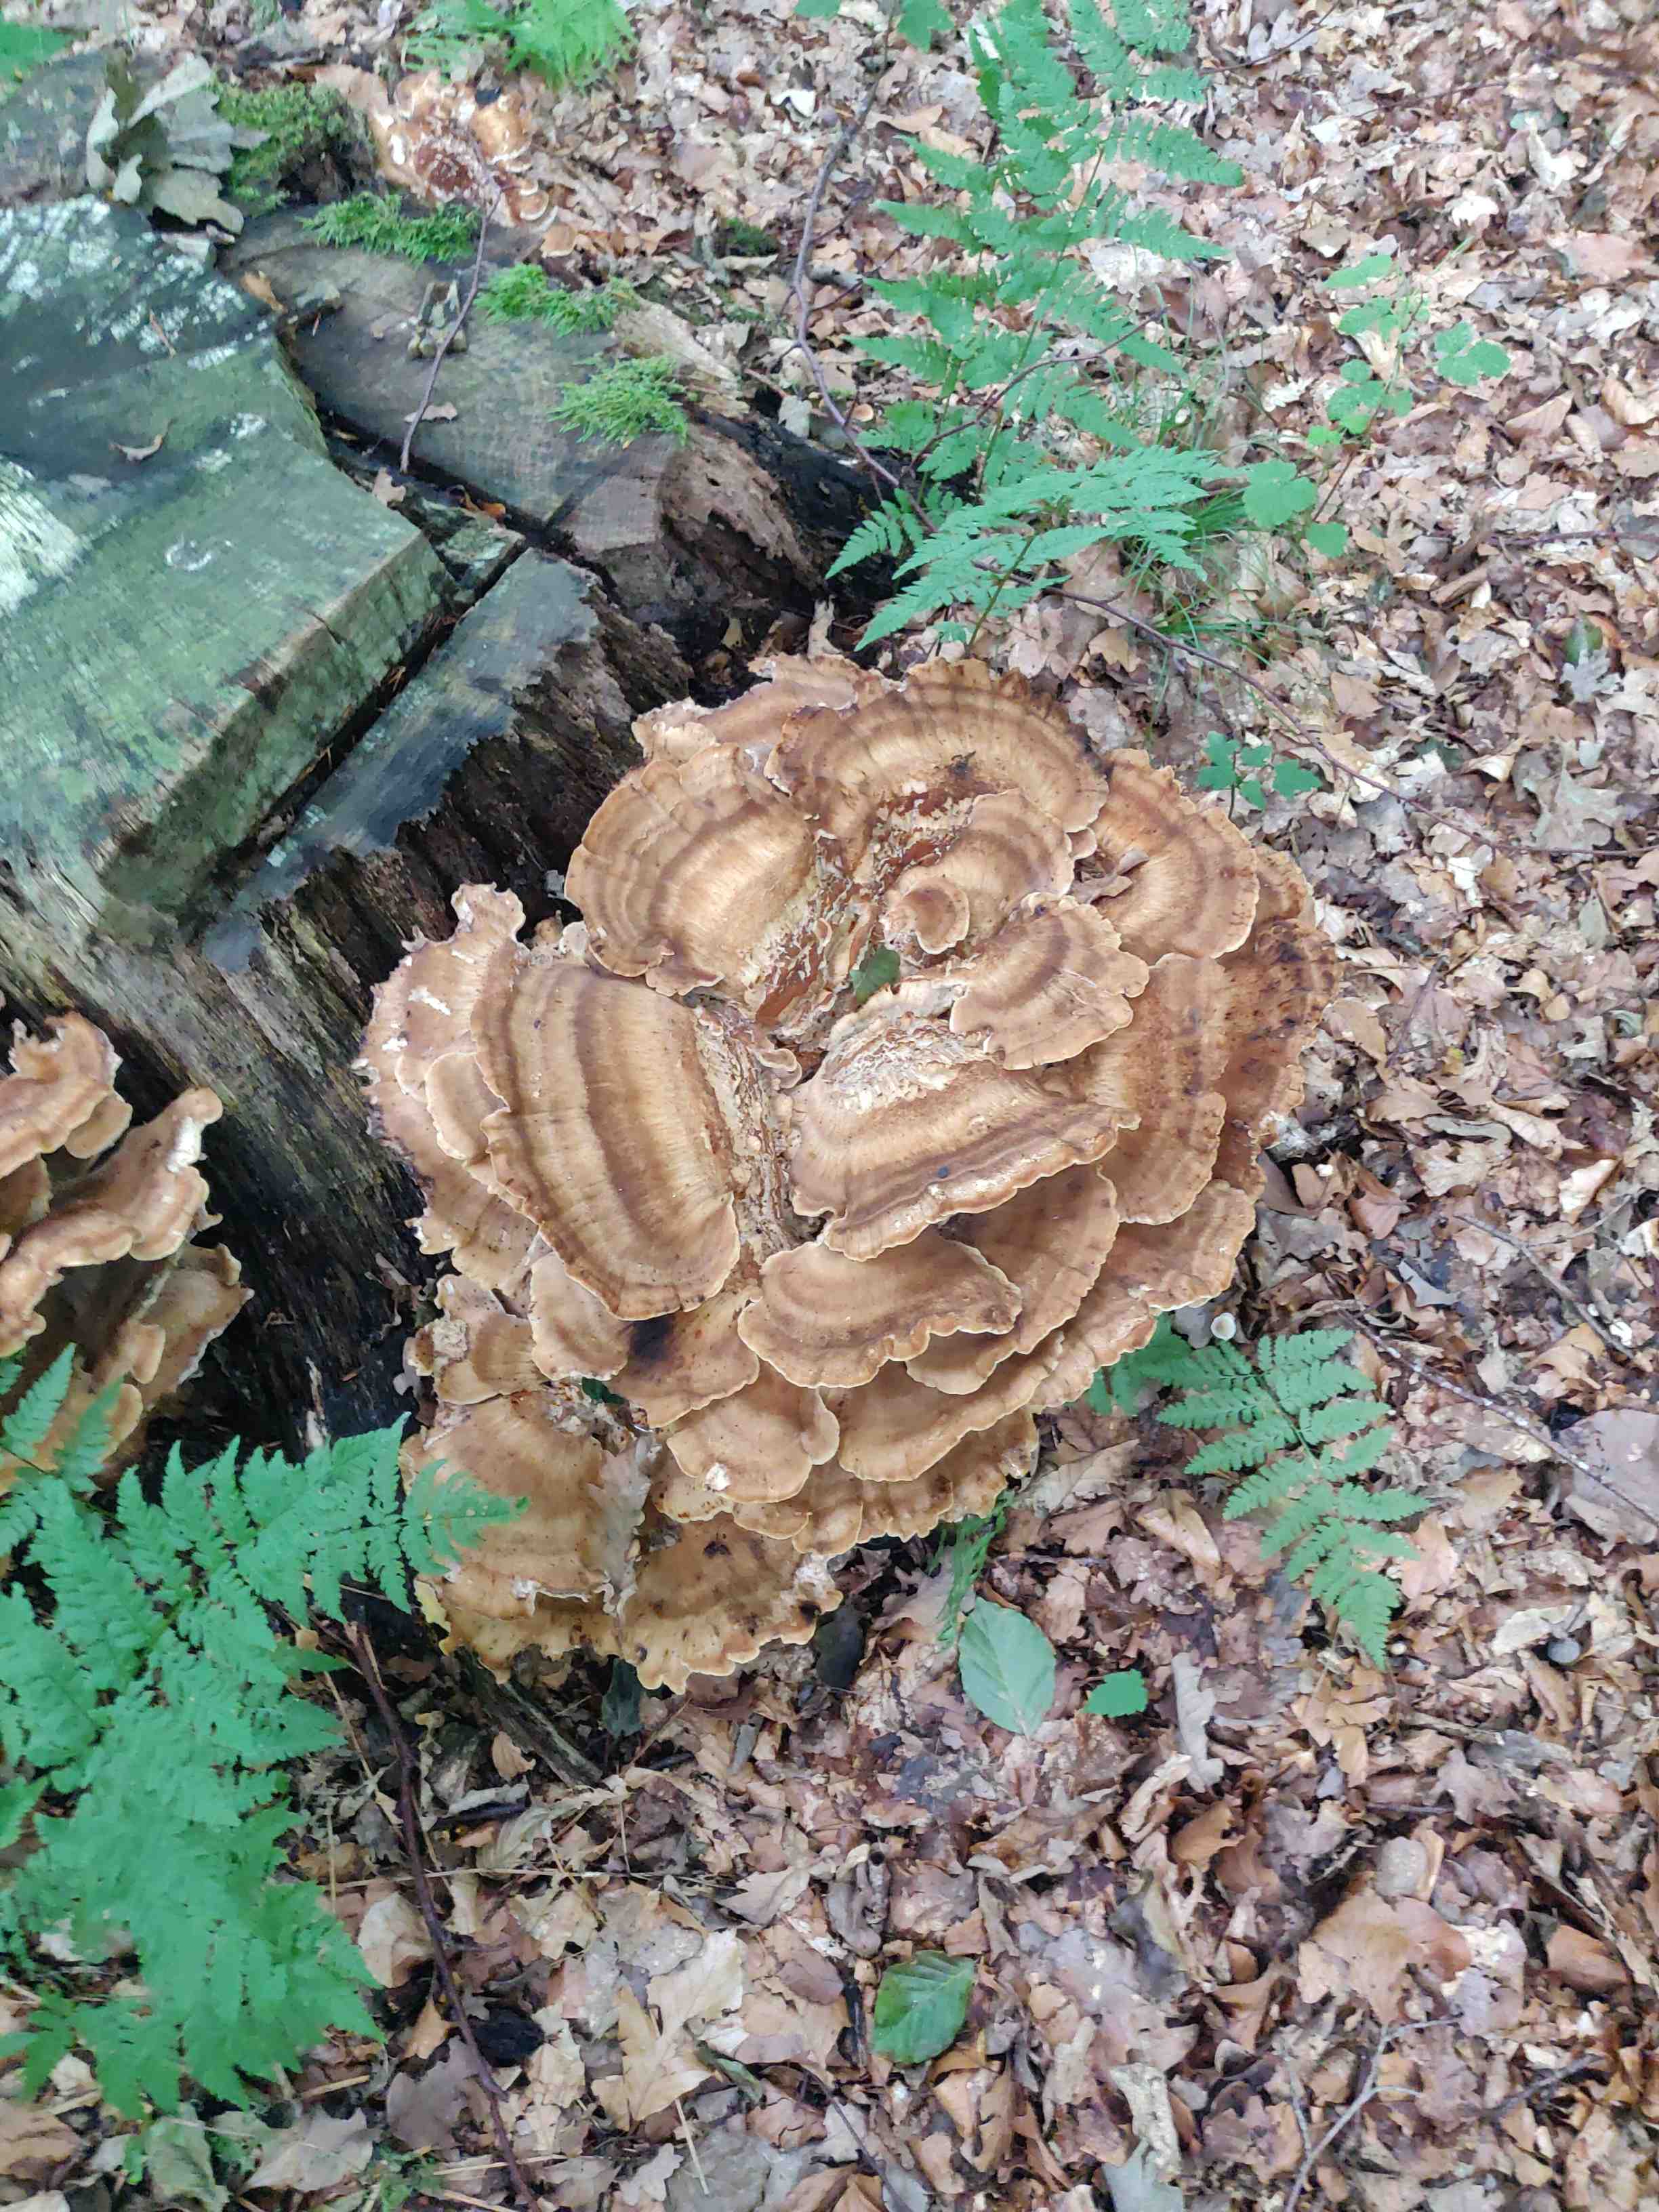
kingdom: Fungi
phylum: Basidiomycota
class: Agaricomycetes
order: Polyporales
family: Meripilaceae
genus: Meripilus
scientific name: Meripilus giganteus
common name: kæmpeporesvamp
